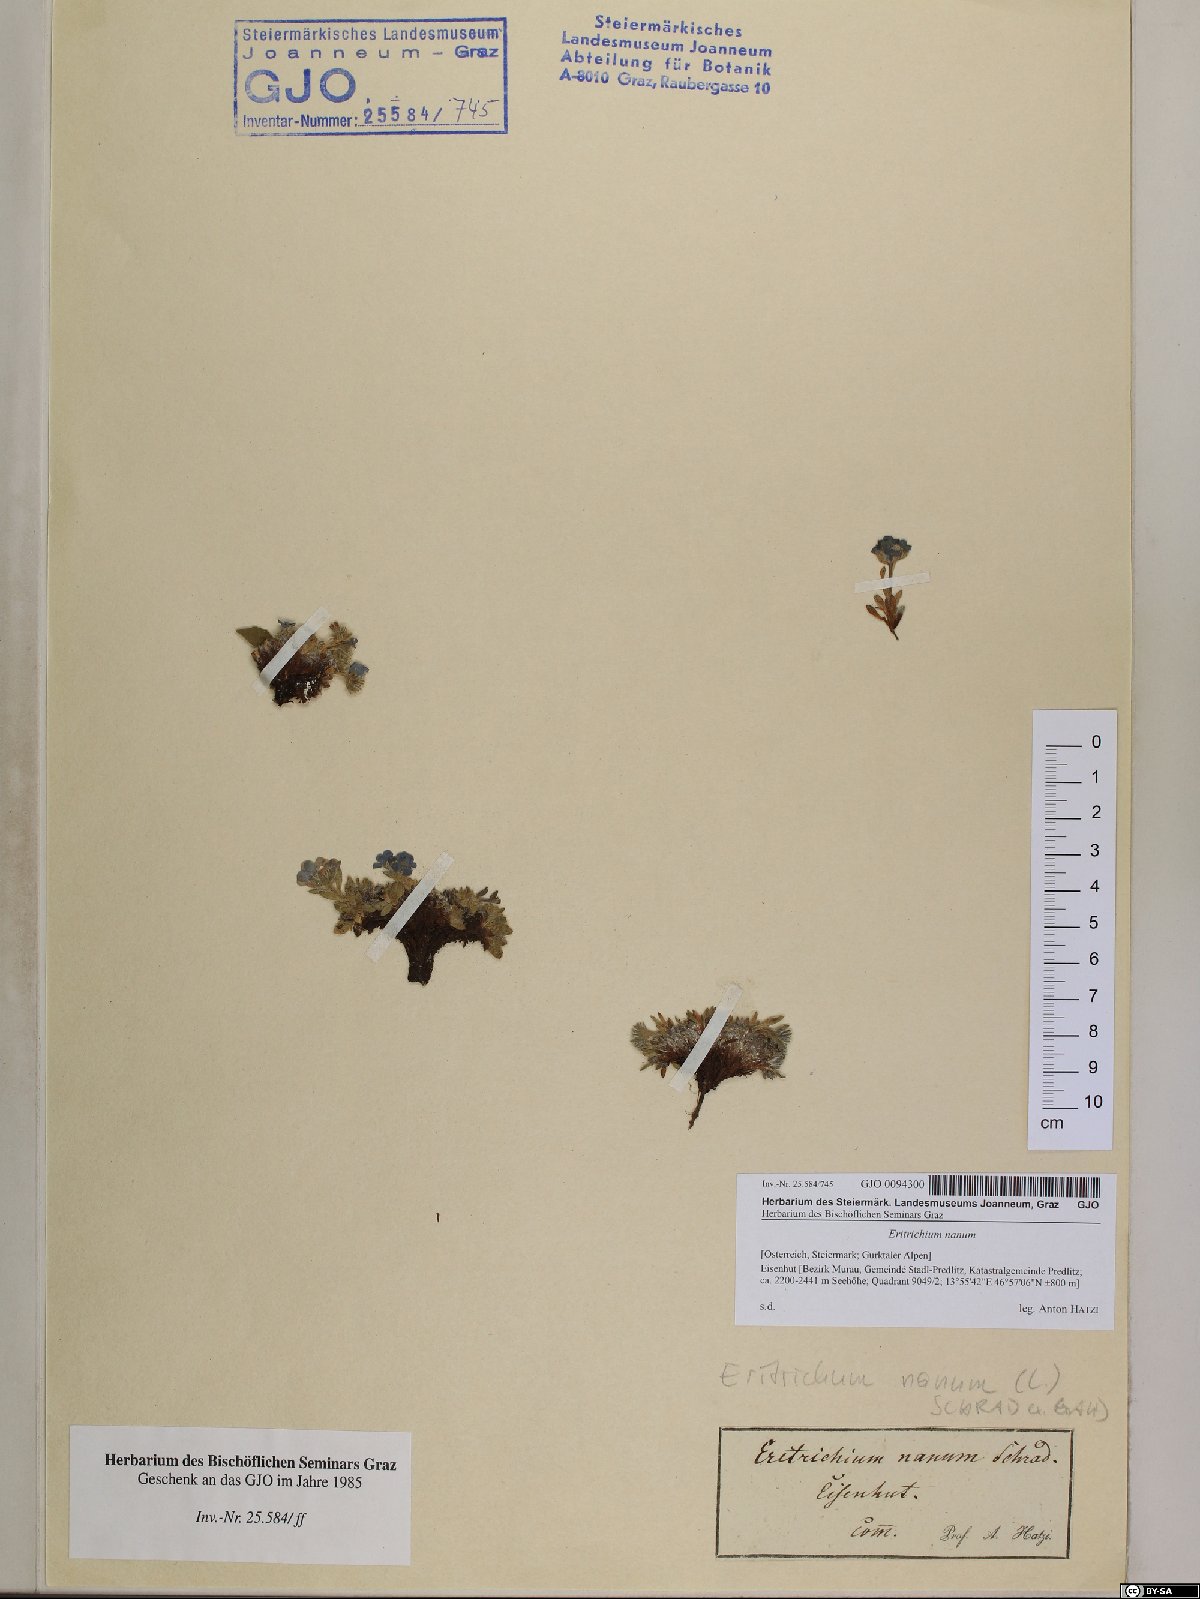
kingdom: Plantae
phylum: Tracheophyta
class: Magnoliopsida
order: Boraginales
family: Boraginaceae
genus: Eritrichium
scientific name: Eritrichium nanum
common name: King-of-the-alps
